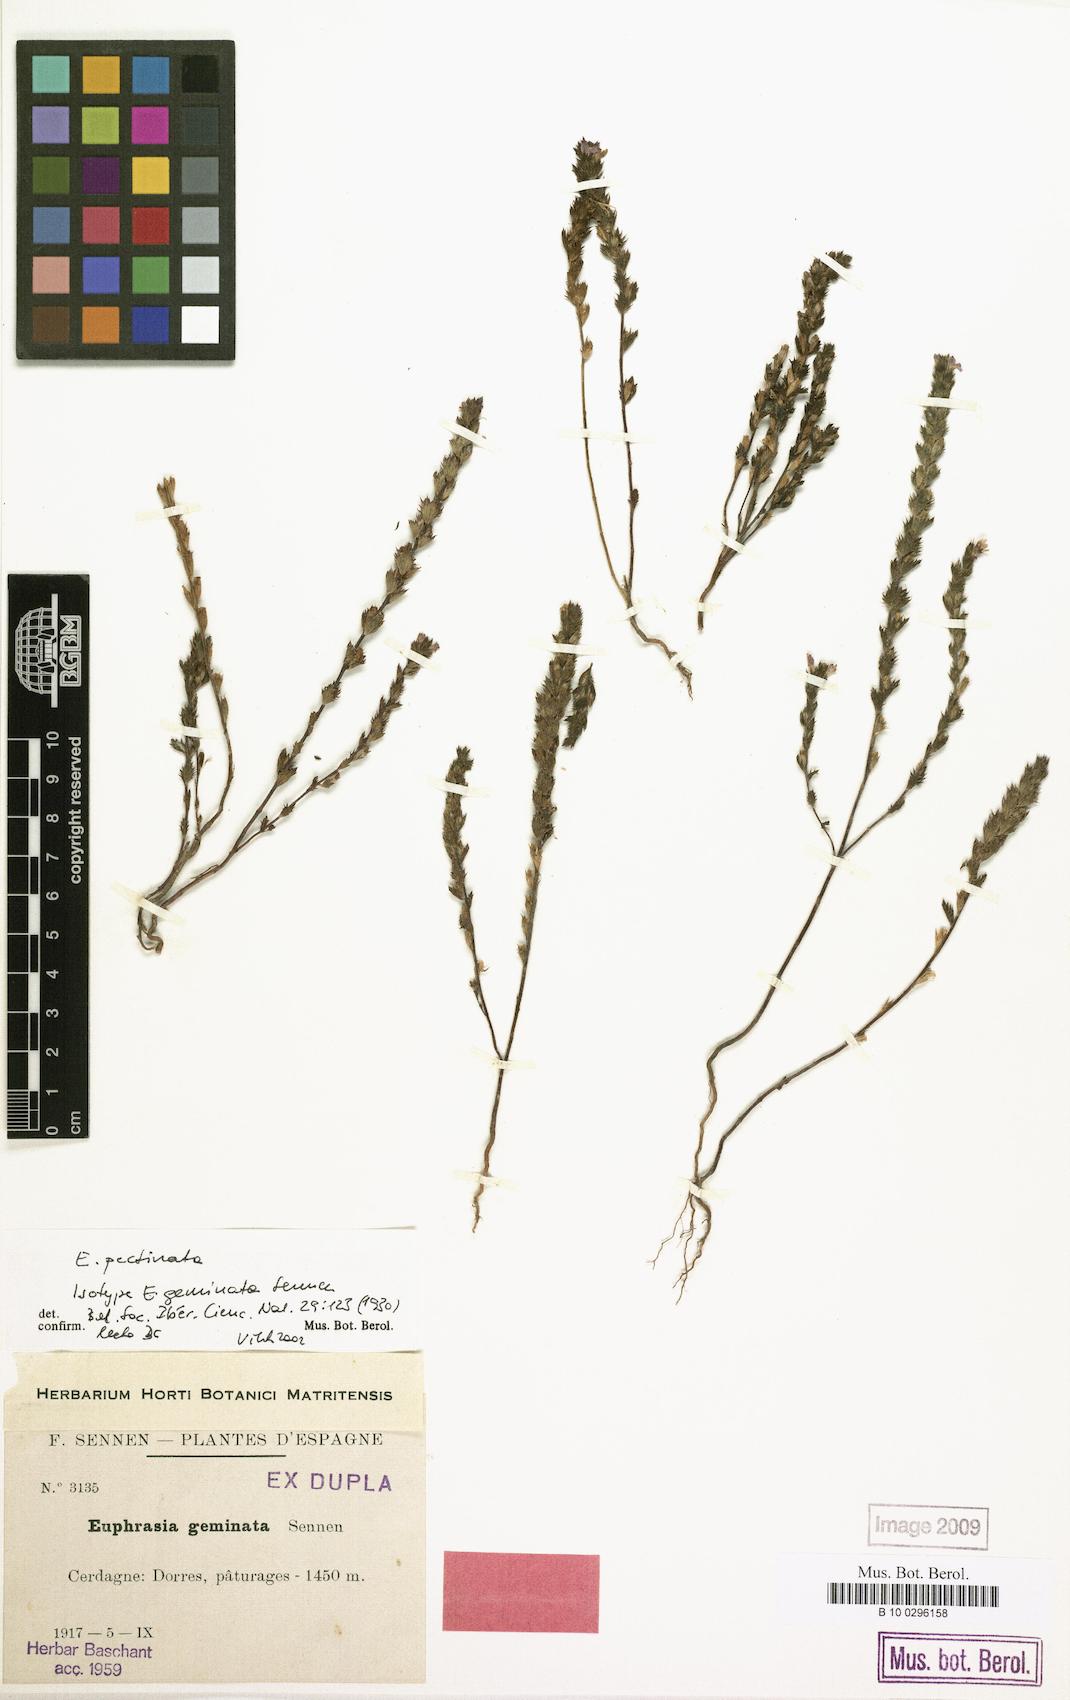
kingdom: Plantae
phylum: Tracheophyta
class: Magnoliopsida
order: Lamiales
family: Orobanchaceae
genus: Euphrasia
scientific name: Euphrasia pectinata
